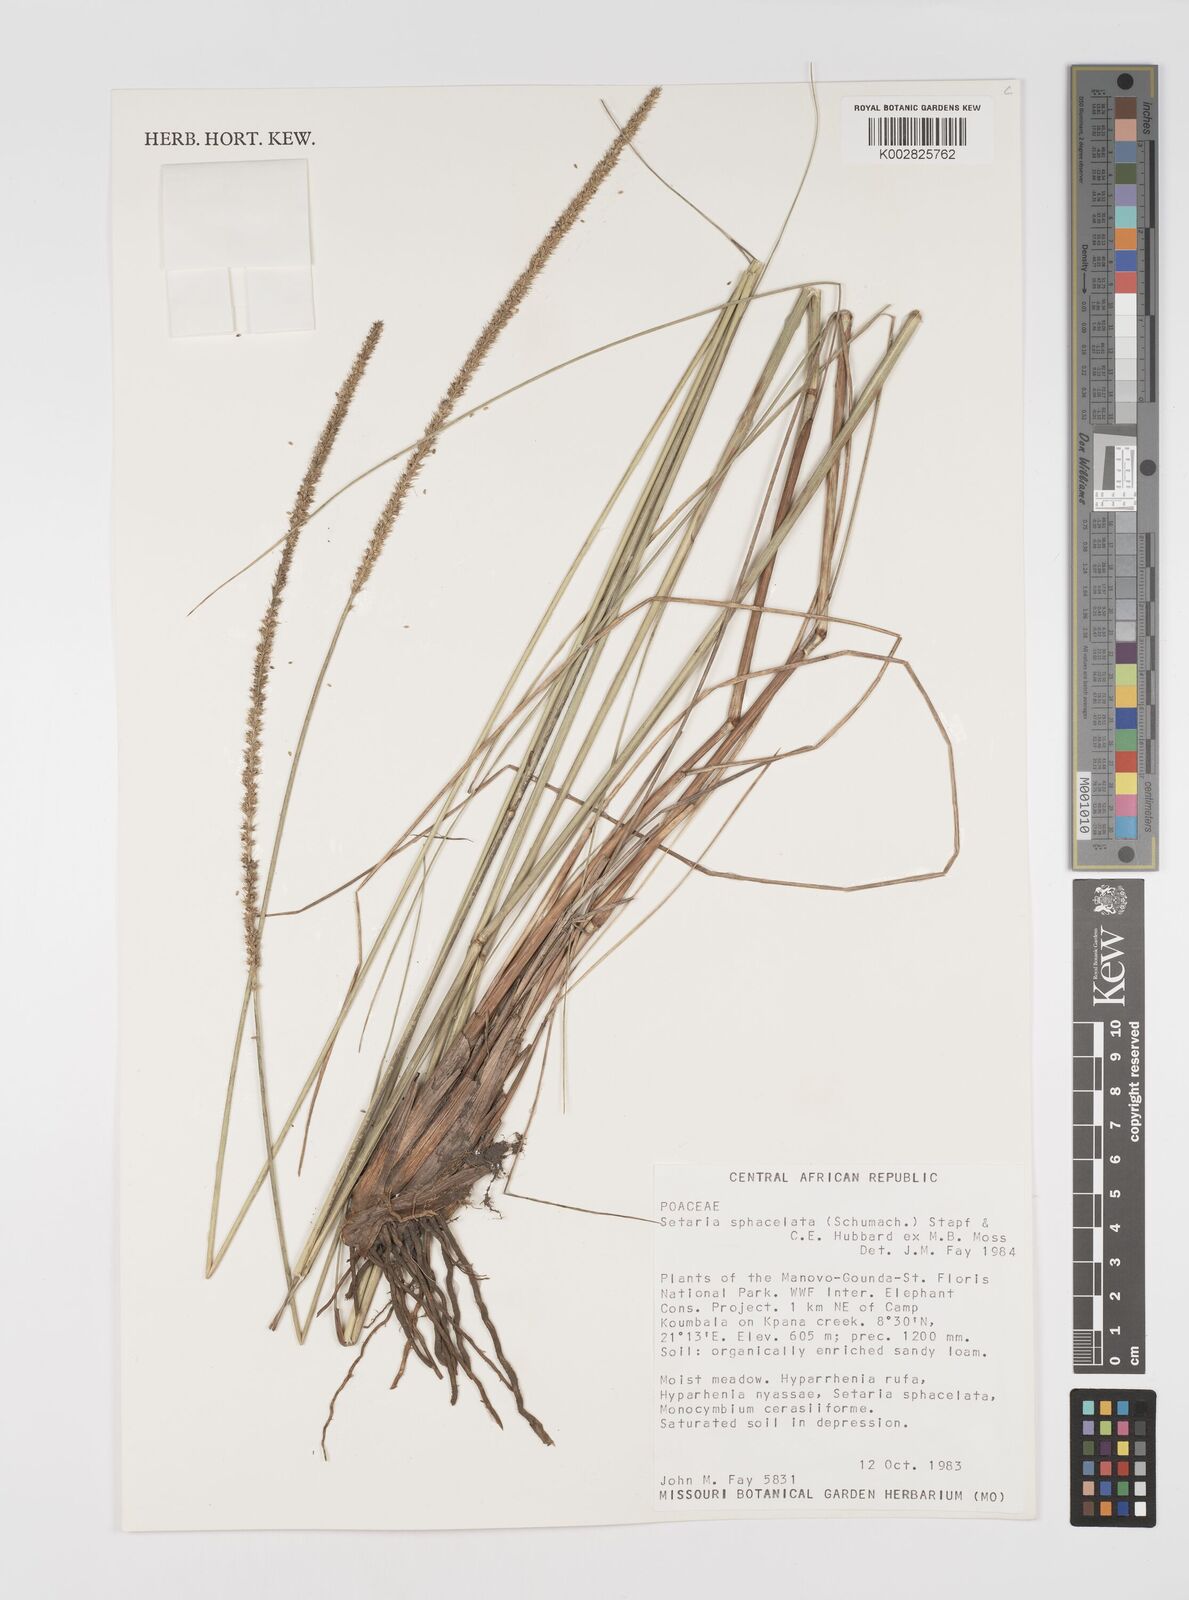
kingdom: Plantae
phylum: Tracheophyta
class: Liliopsida
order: Poales
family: Poaceae
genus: Setaria
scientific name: Setaria sphacelata
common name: African bristlegrass
